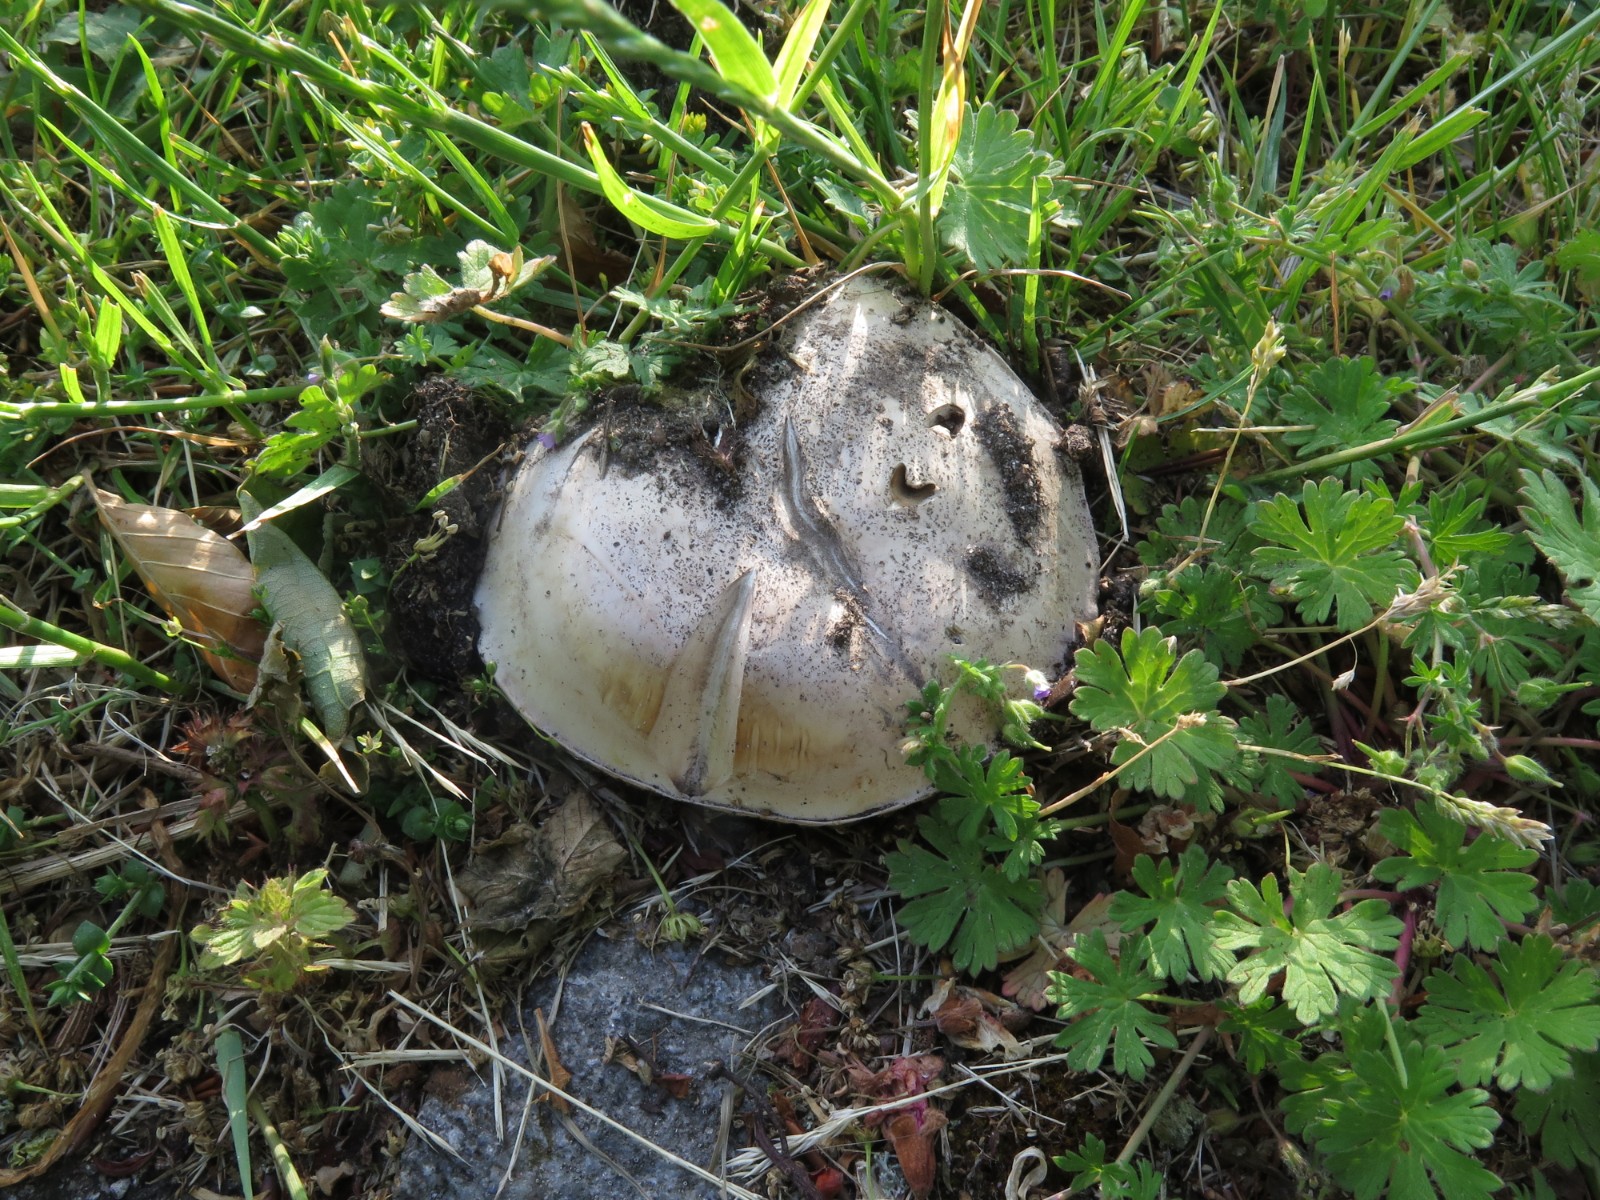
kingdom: Fungi
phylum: Basidiomycota
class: Agaricomycetes
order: Agaricales
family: Agaricaceae
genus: Agaricus
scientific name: Agaricus bitorquis
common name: vej-champignon
